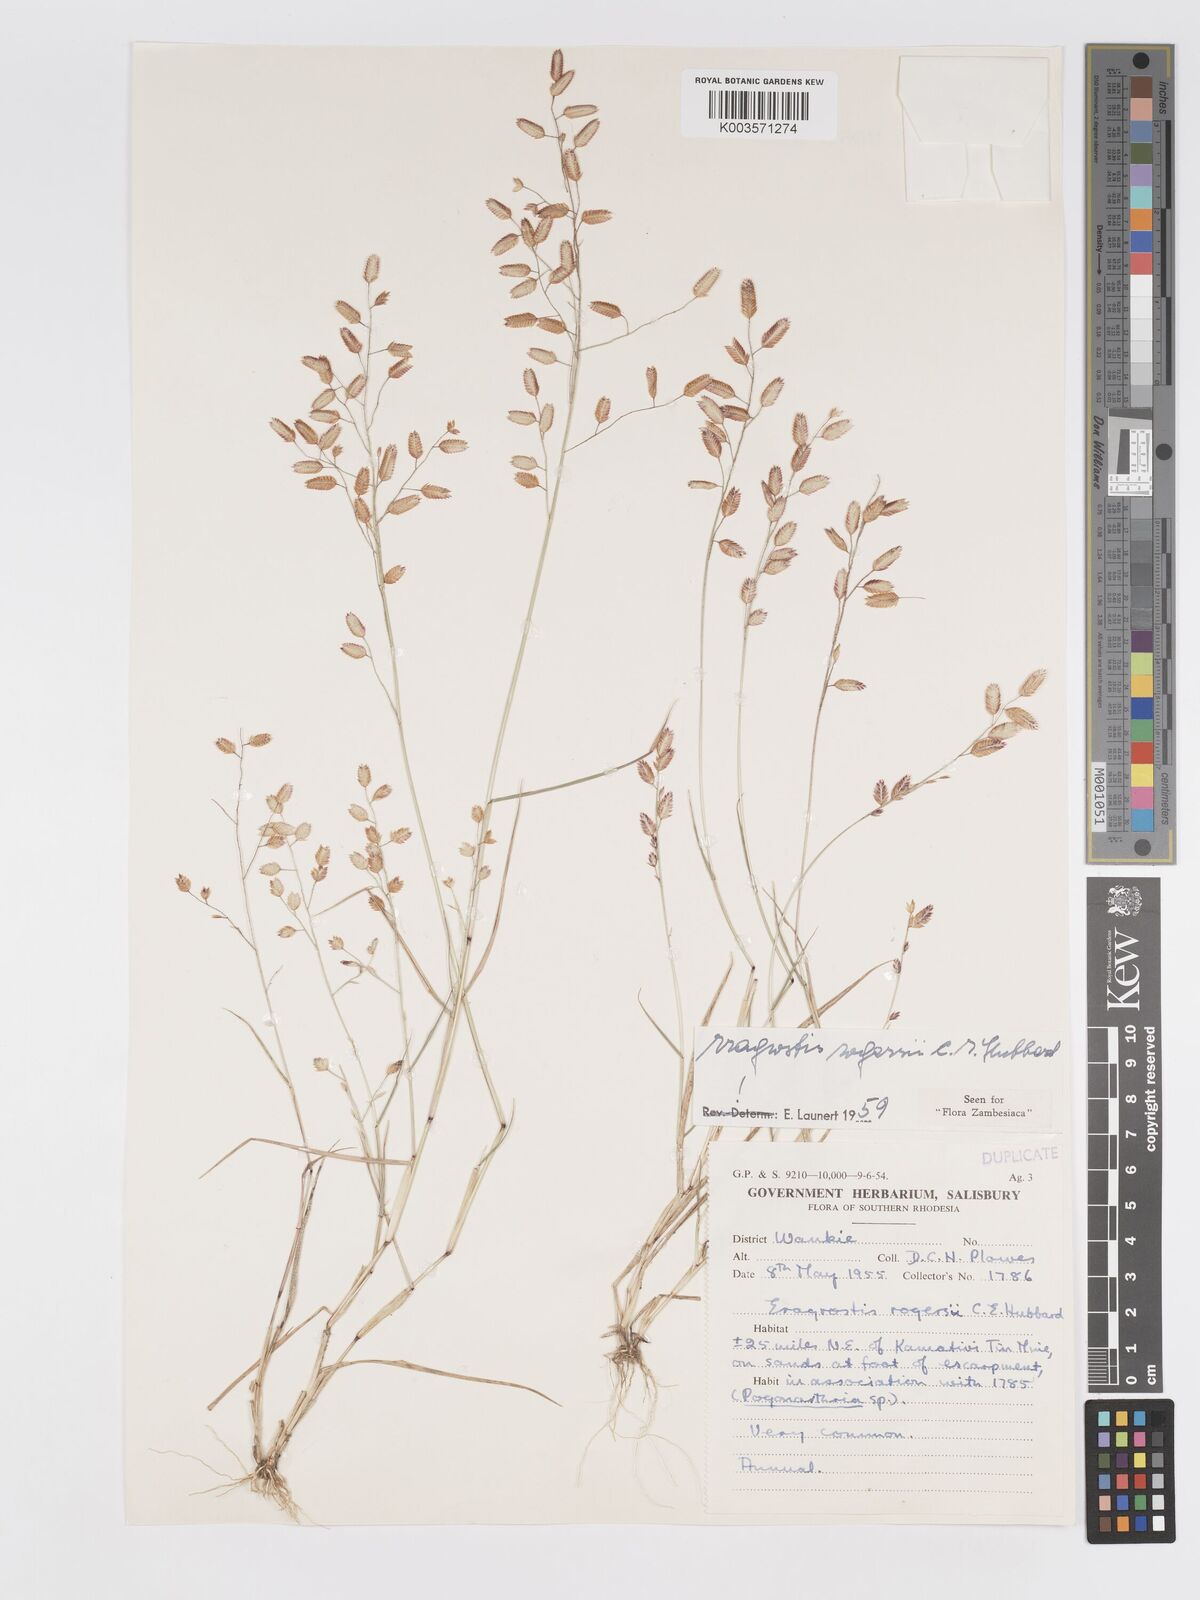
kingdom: Plantae
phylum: Tracheophyta
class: Liliopsida
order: Poales
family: Poaceae
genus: Eragrostis
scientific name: Eragrostis rogersii
